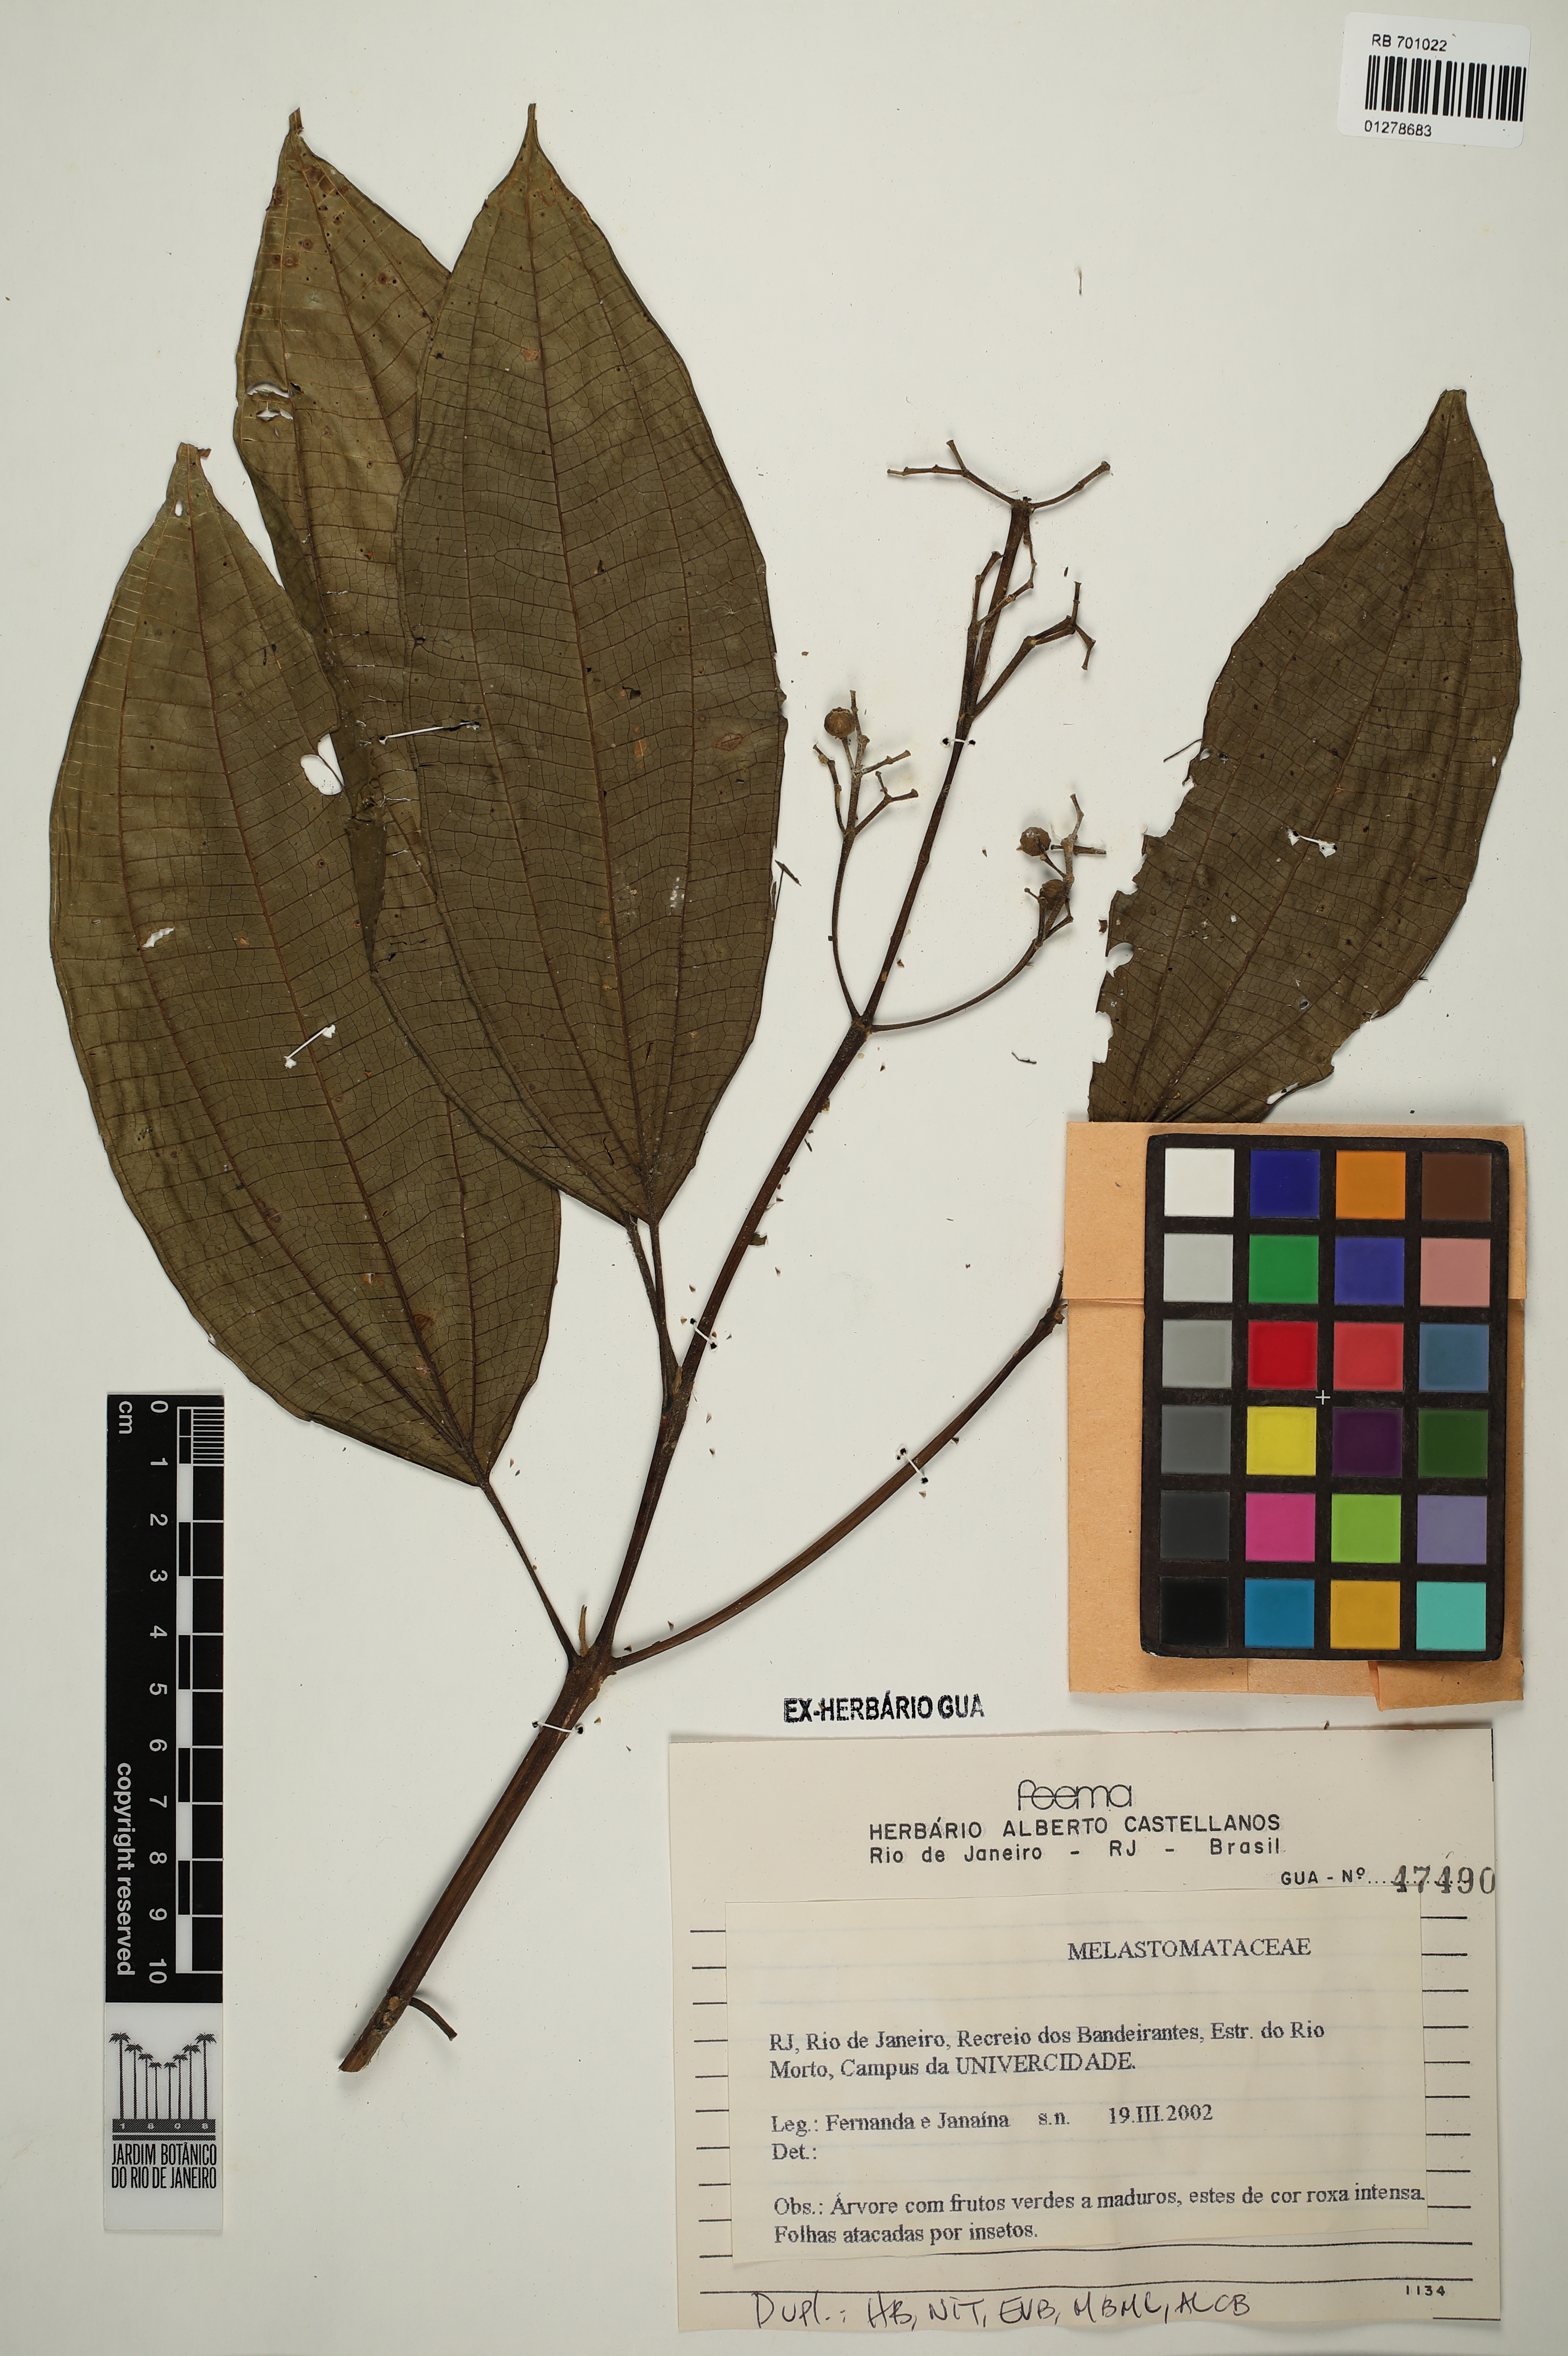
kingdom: Plantae
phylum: Tracheophyta
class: Magnoliopsida
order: Myrtales
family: Melastomataceae
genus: Miconia
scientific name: Miconia staminea
